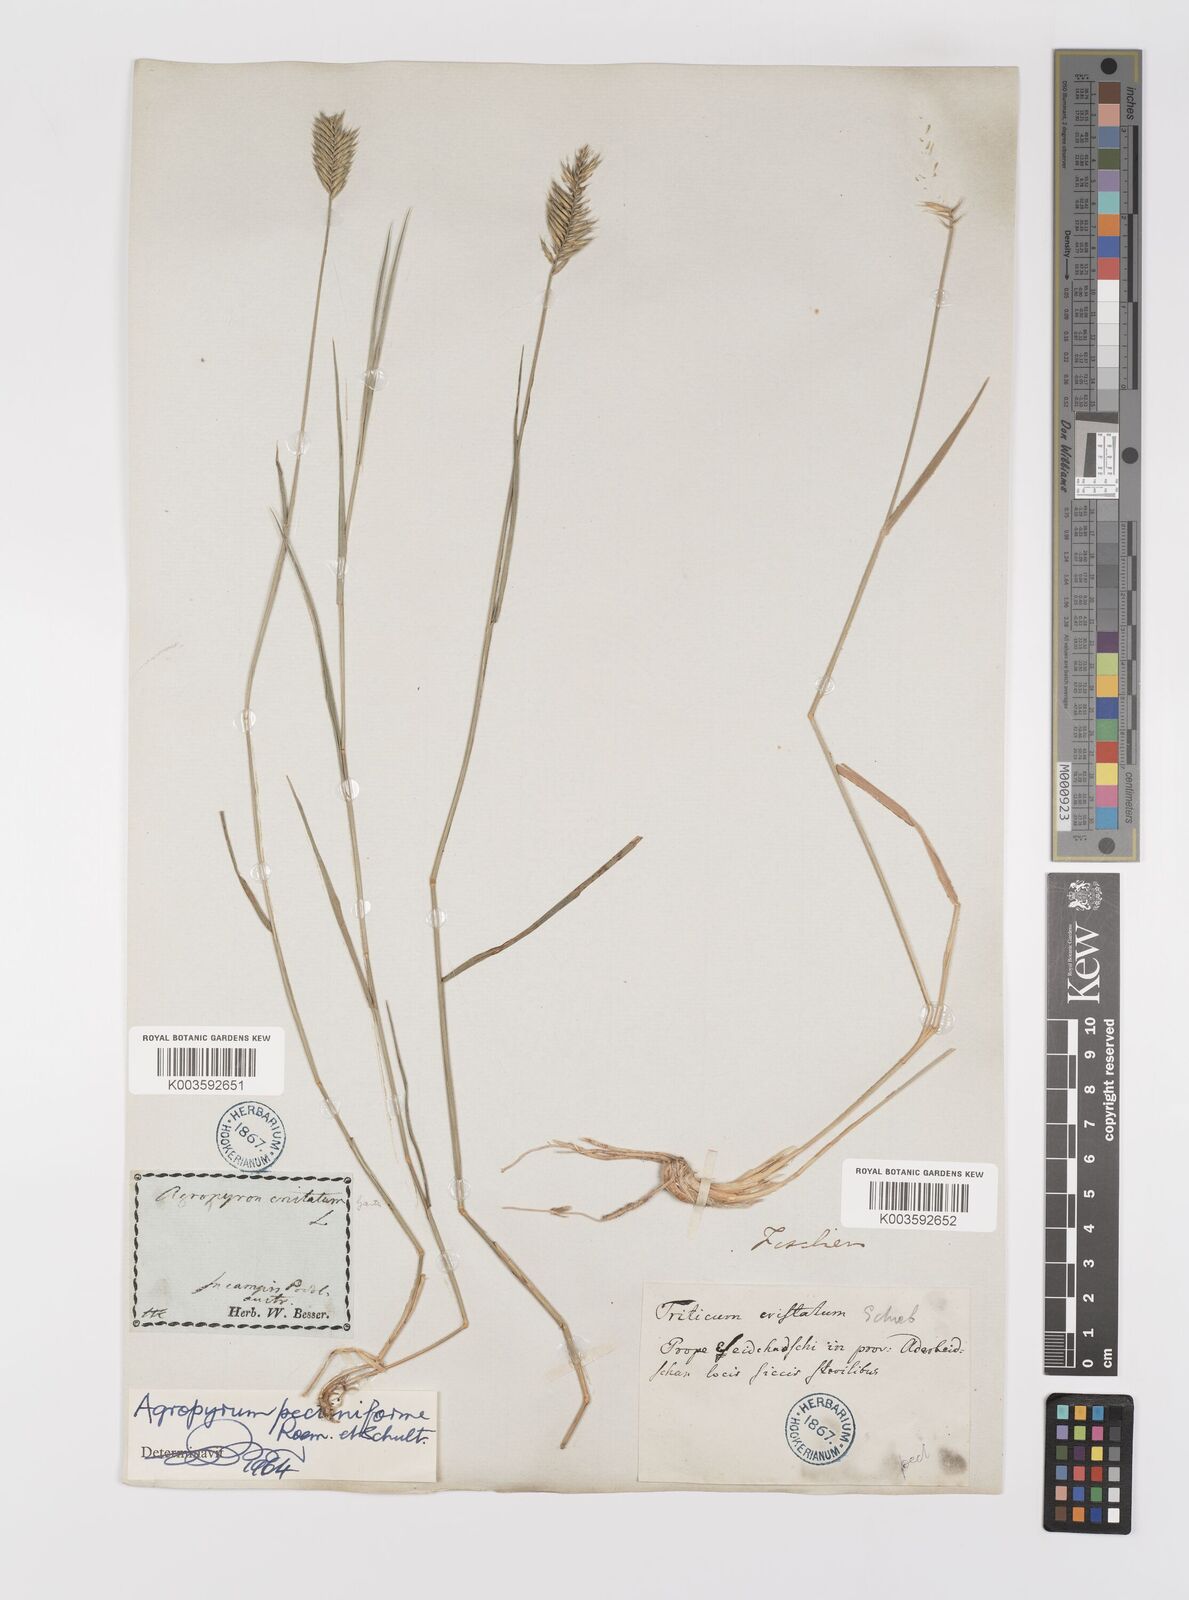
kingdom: Plantae
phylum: Tracheophyta
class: Liliopsida
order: Poales
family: Poaceae
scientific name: Poaceae
